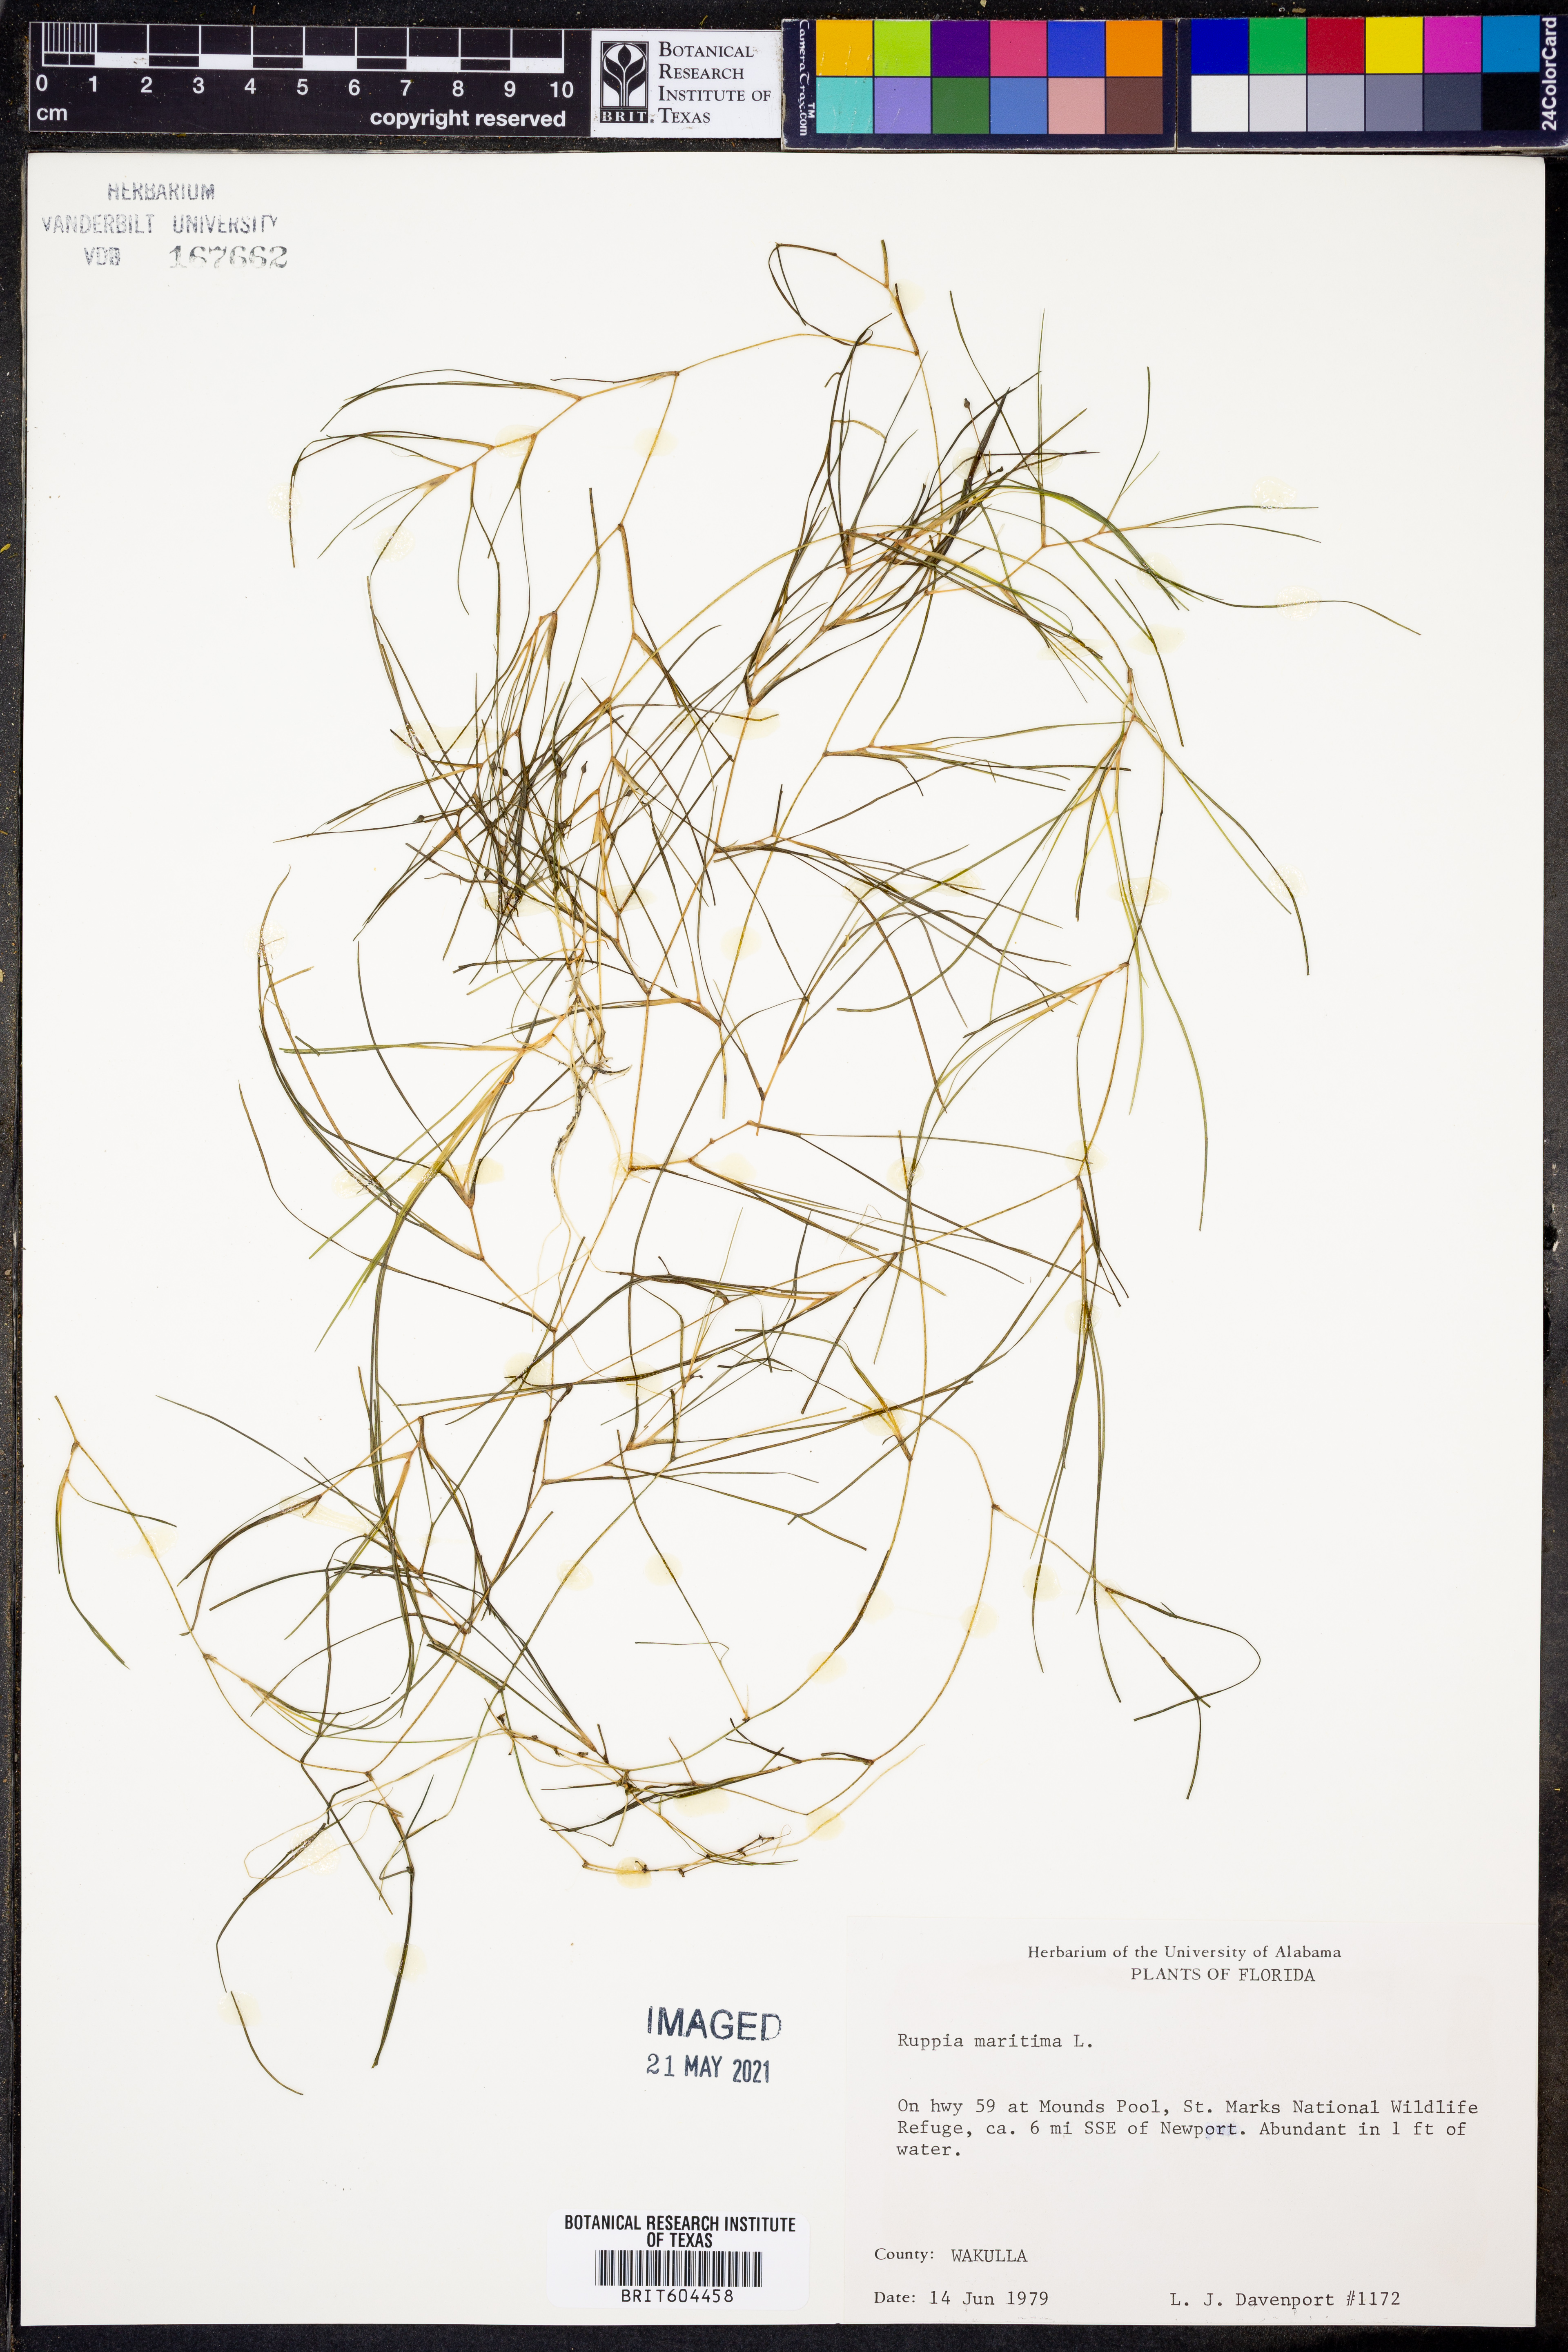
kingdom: Plantae
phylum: Tracheophyta
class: Liliopsida
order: Alismatales
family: Ruppiaceae
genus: Ruppia
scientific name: Ruppia maritima
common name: Beaked tasselweed
